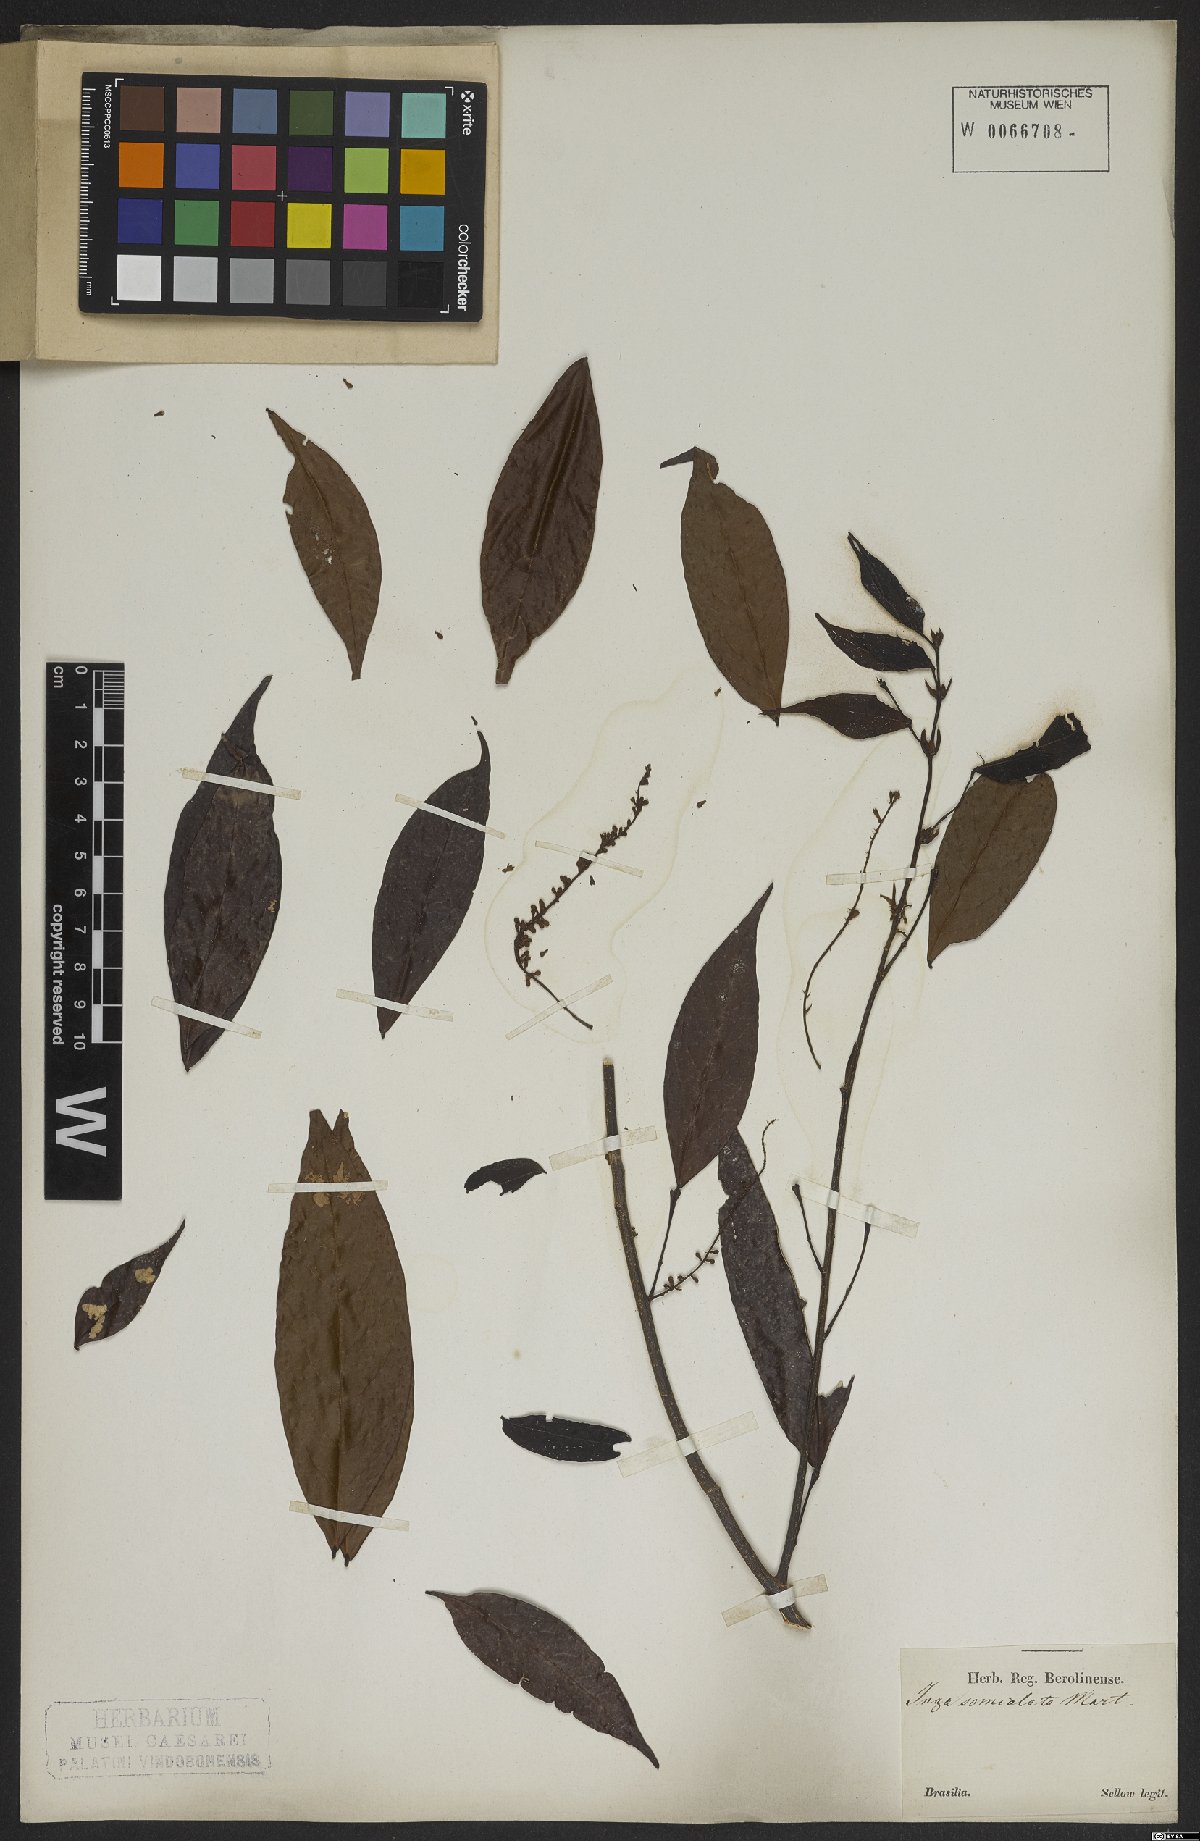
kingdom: Plantae
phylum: Tracheophyta
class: Magnoliopsida
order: Fabales
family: Fabaceae
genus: Inga
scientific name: Inga marginata
